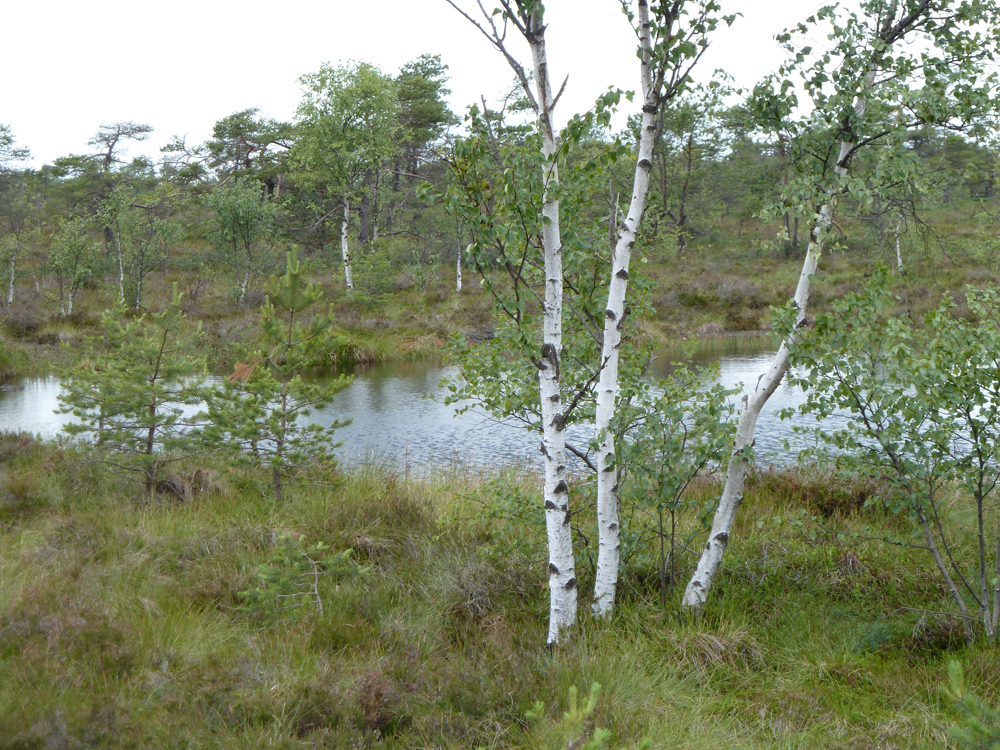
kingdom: Plantae
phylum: Tracheophyta
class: Magnoliopsida
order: Fagales
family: Betulaceae
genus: Betula
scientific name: Betula pendula
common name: Silver birch
